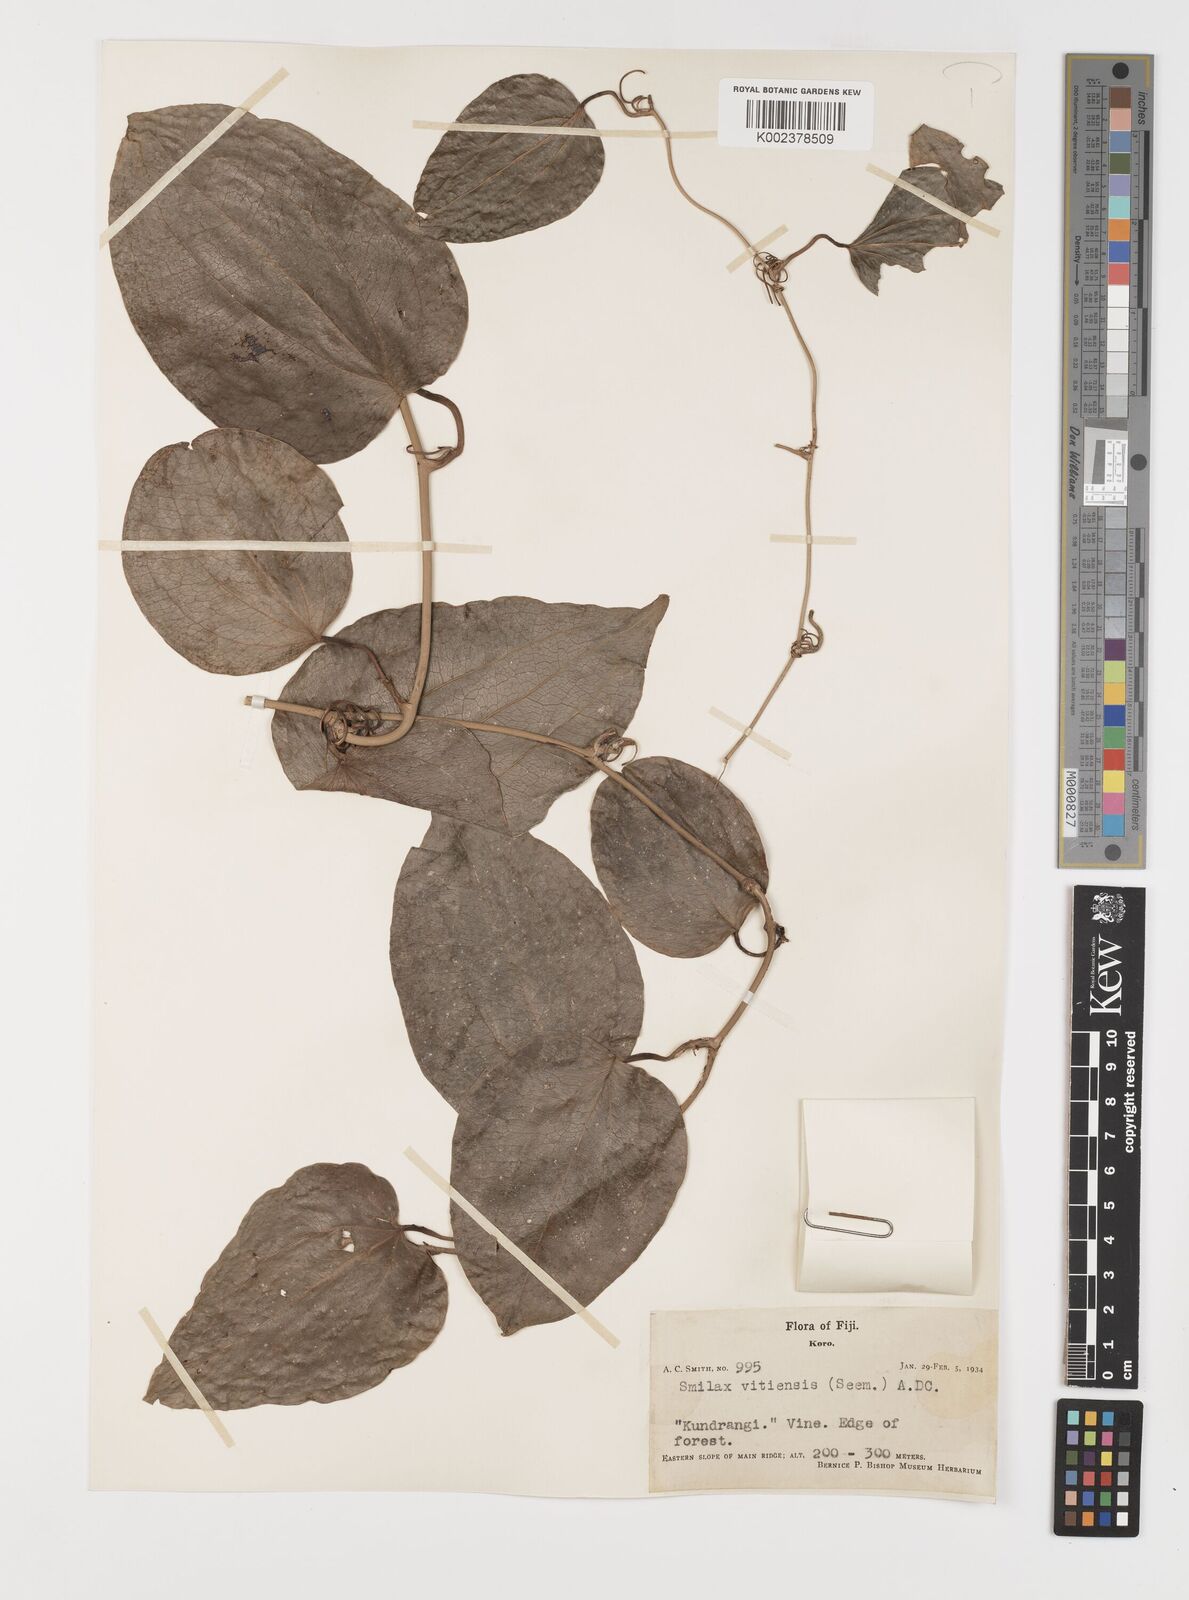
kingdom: Plantae
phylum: Tracheophyta
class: Liliopsida
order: Liliales
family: Smilacaceae
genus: Smilax
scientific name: Smilax vitiensis
